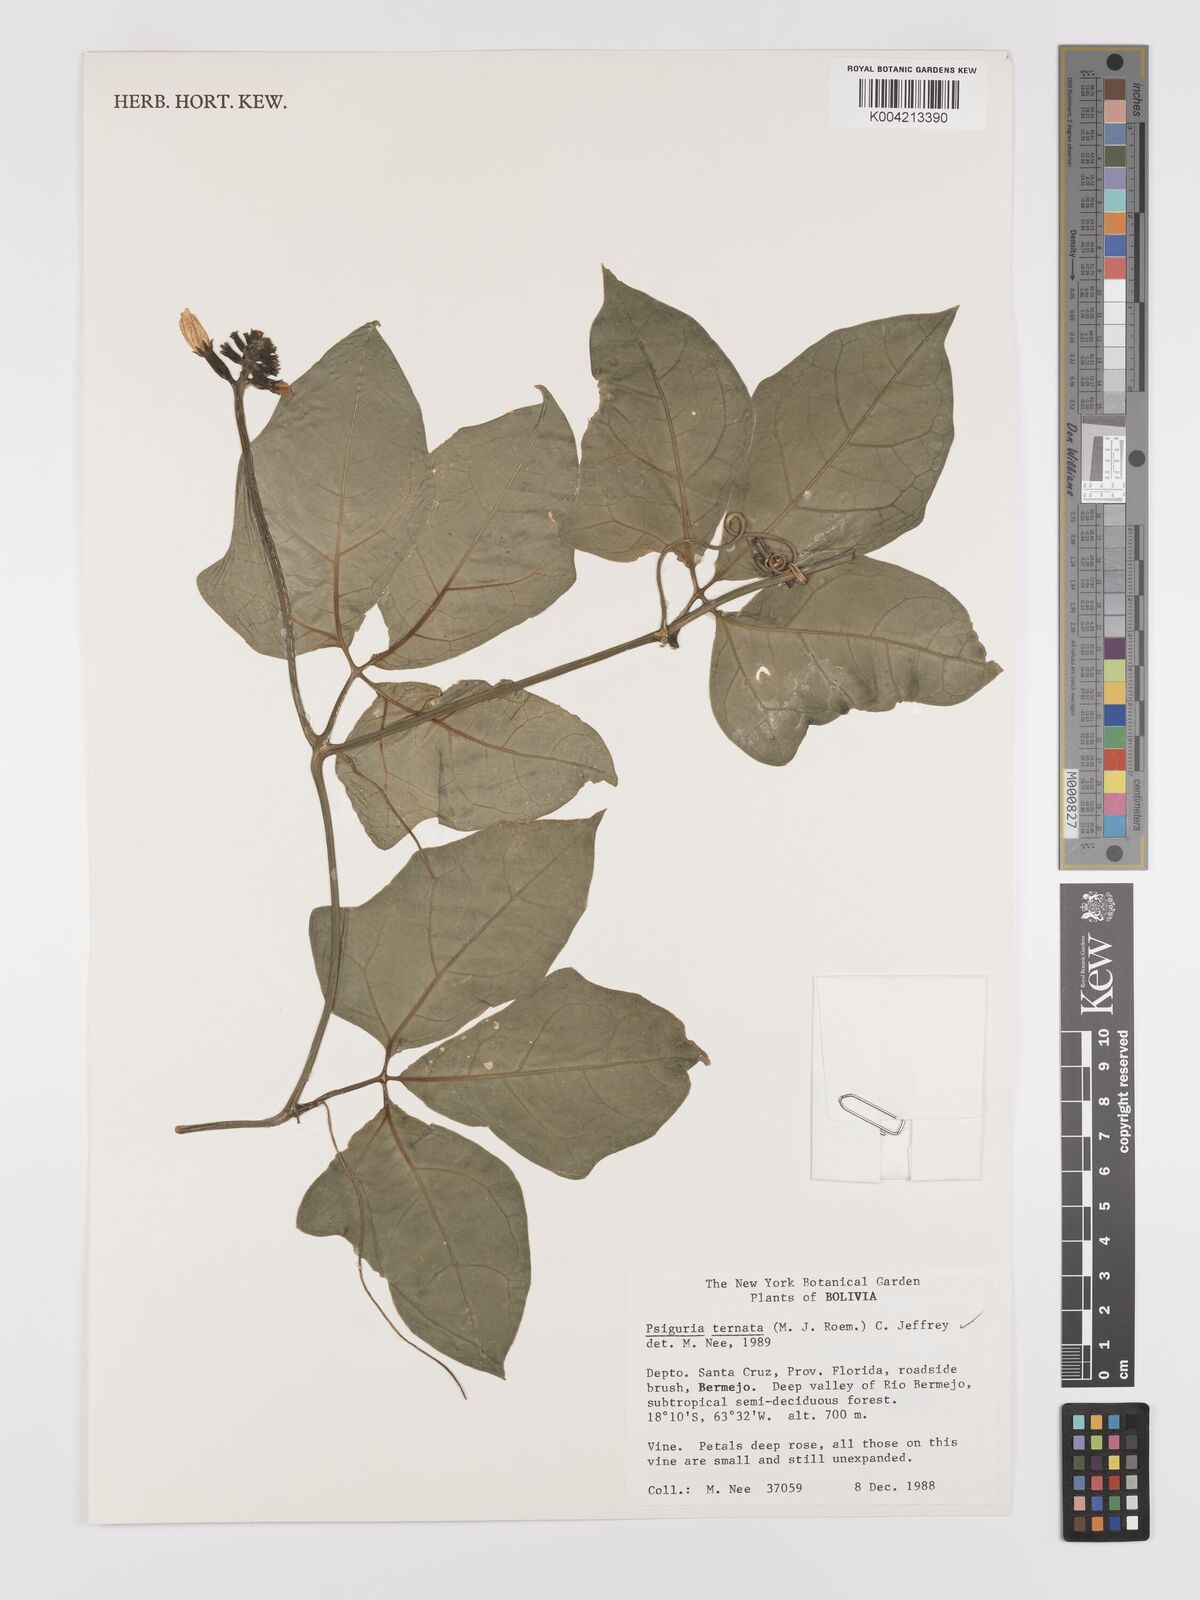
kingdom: Plantae
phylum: Tracheophyta
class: Magnoliopsida
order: Cucurbitales
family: Cucurbitaceae
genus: Psiguria
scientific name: Psiguria ternata
